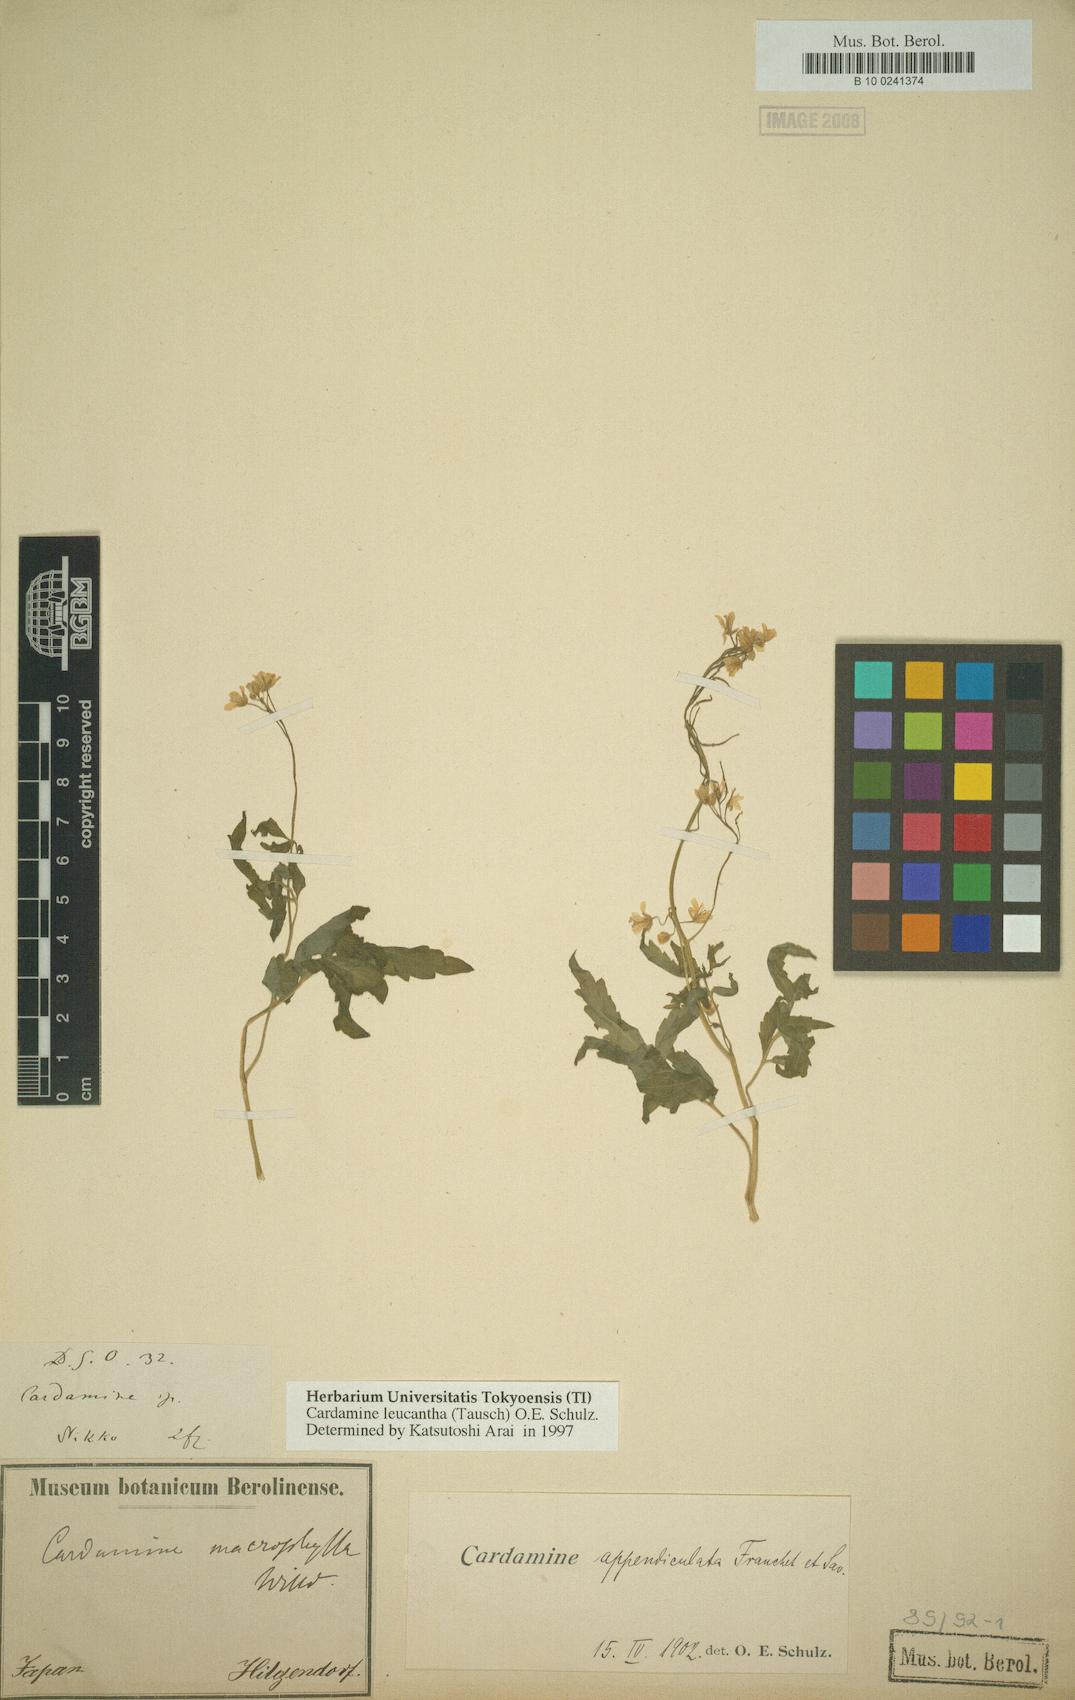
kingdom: Plantae
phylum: Tracheophyta
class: Magnoliopsida
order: Brassicales
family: Brassicaceae
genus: Cardamine
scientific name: Cardamine leucantha
